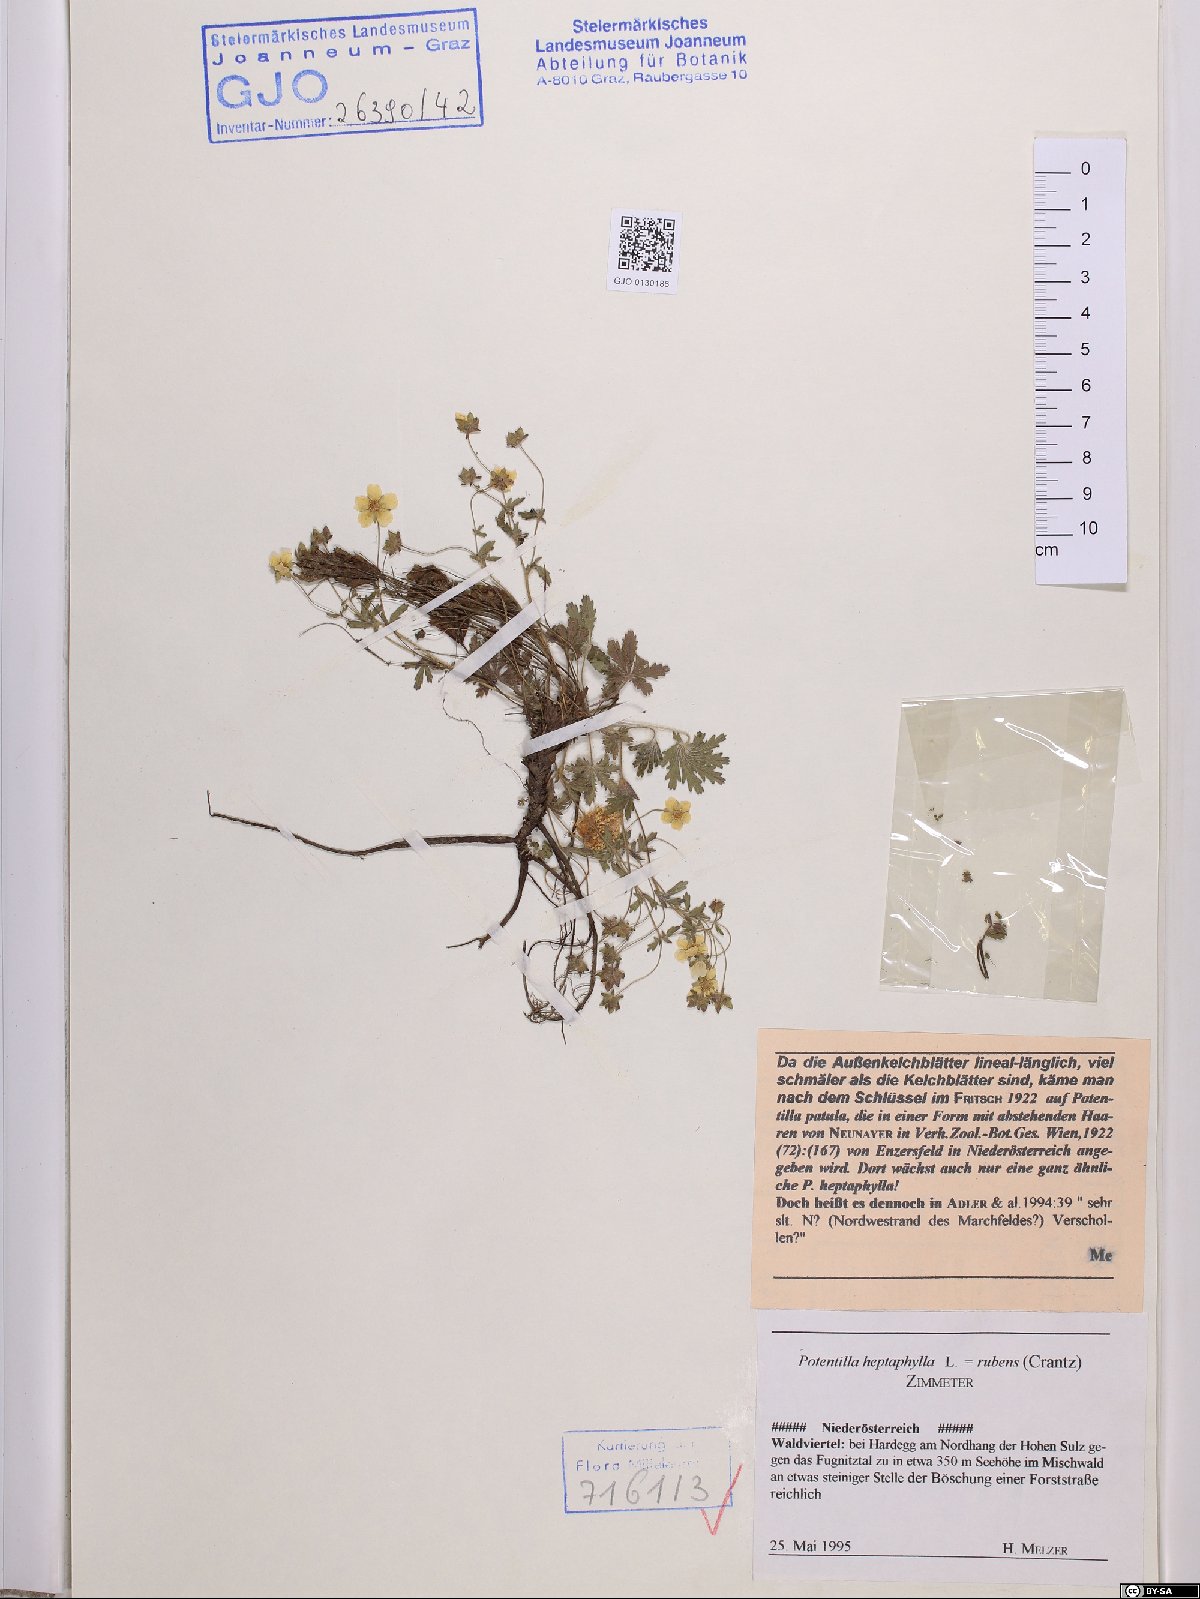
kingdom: Plantae
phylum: Tracheophyta
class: Magnoliopsida
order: Rosales
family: Rosaceae
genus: Potentilla
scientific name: Potentilla heptaphylla
